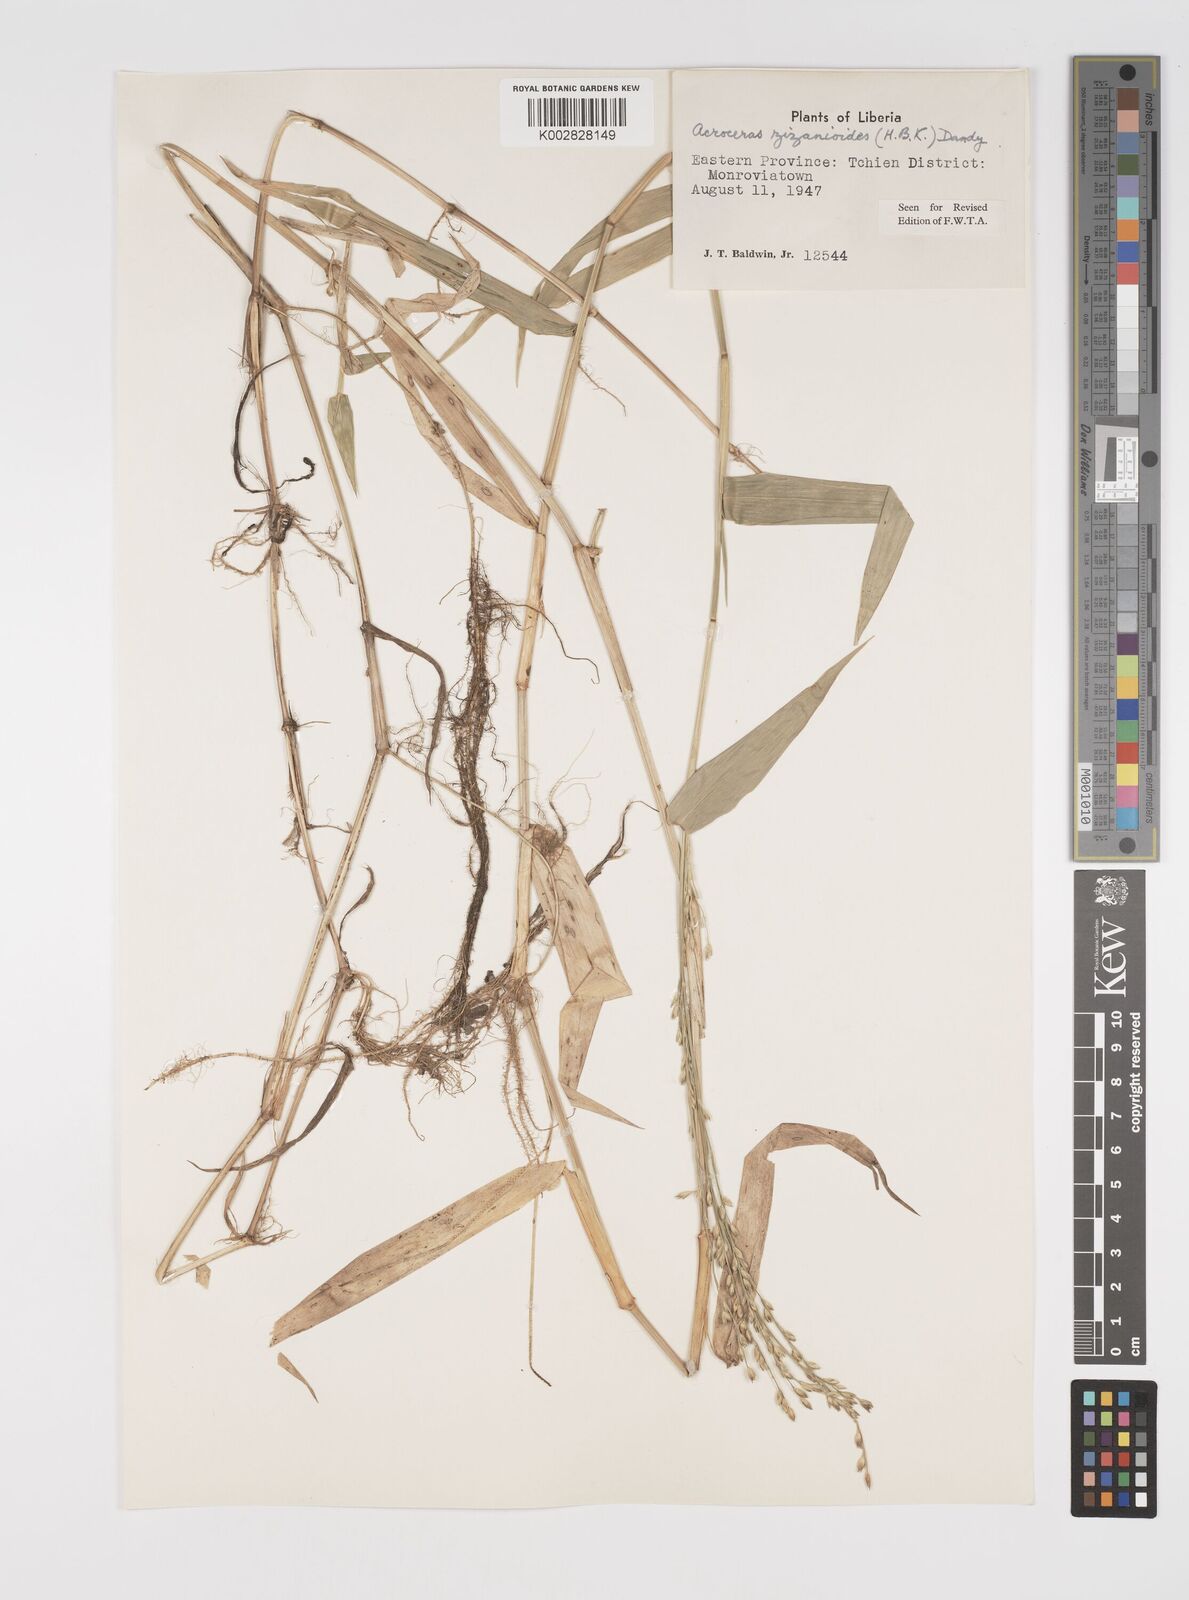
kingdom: Plantae
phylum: Tracheophyta
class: Liliopsida
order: Poales
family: Poaceae
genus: Acroceras
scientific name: Acroceras zizanioides
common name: Oat grass
